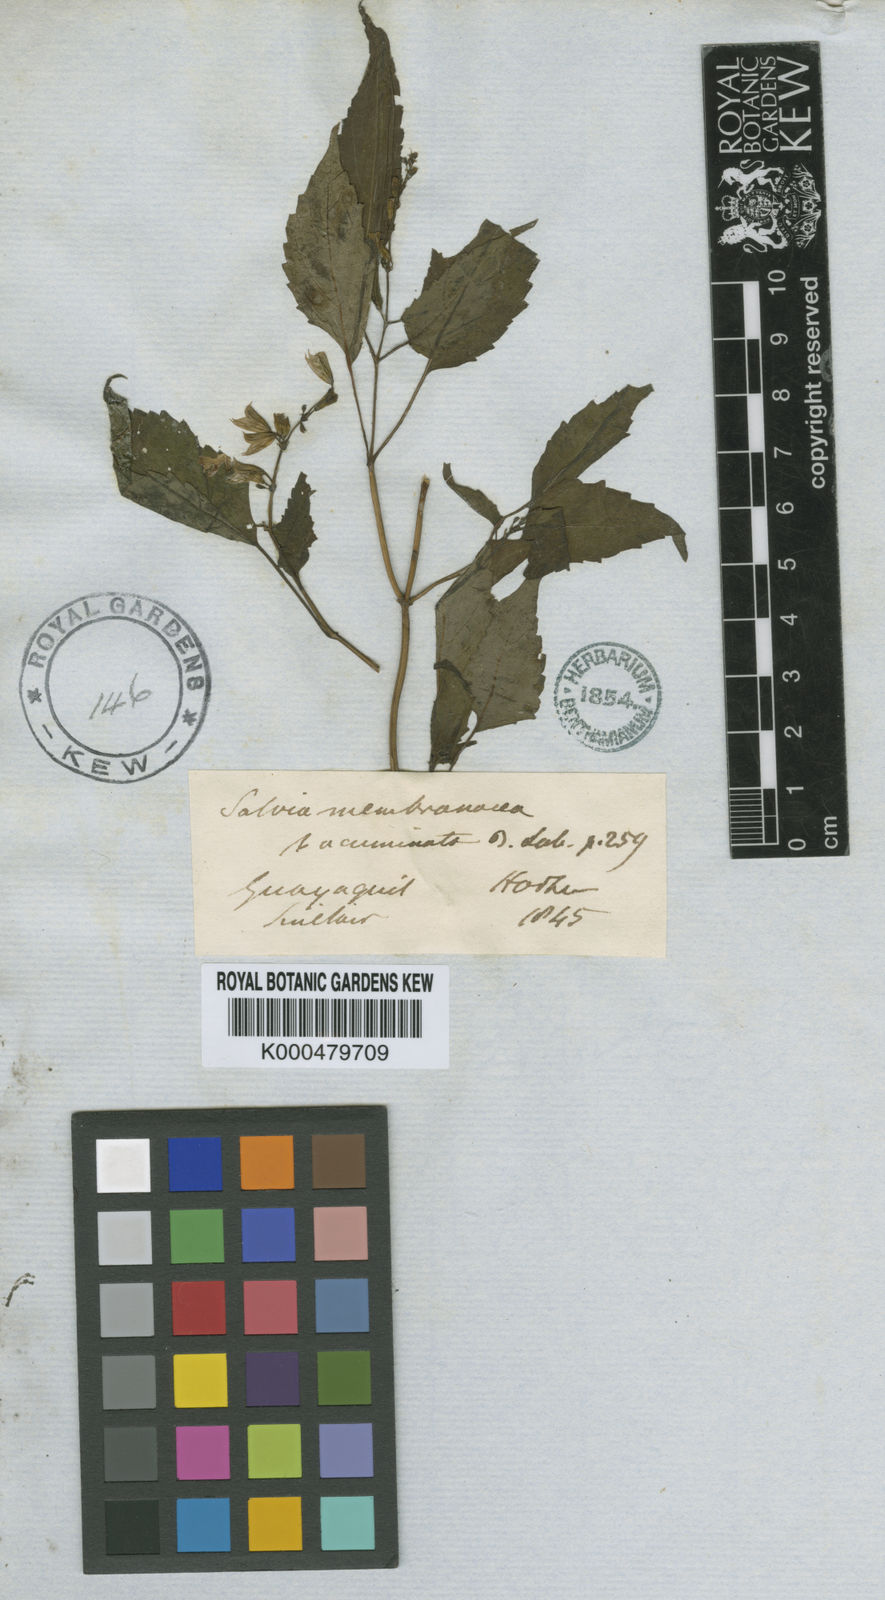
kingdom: Plantae
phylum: Tracheophyta
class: Magnoliopsida
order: Lamiales
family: Lamiaceae
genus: Salvia
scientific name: Salvia angulata
